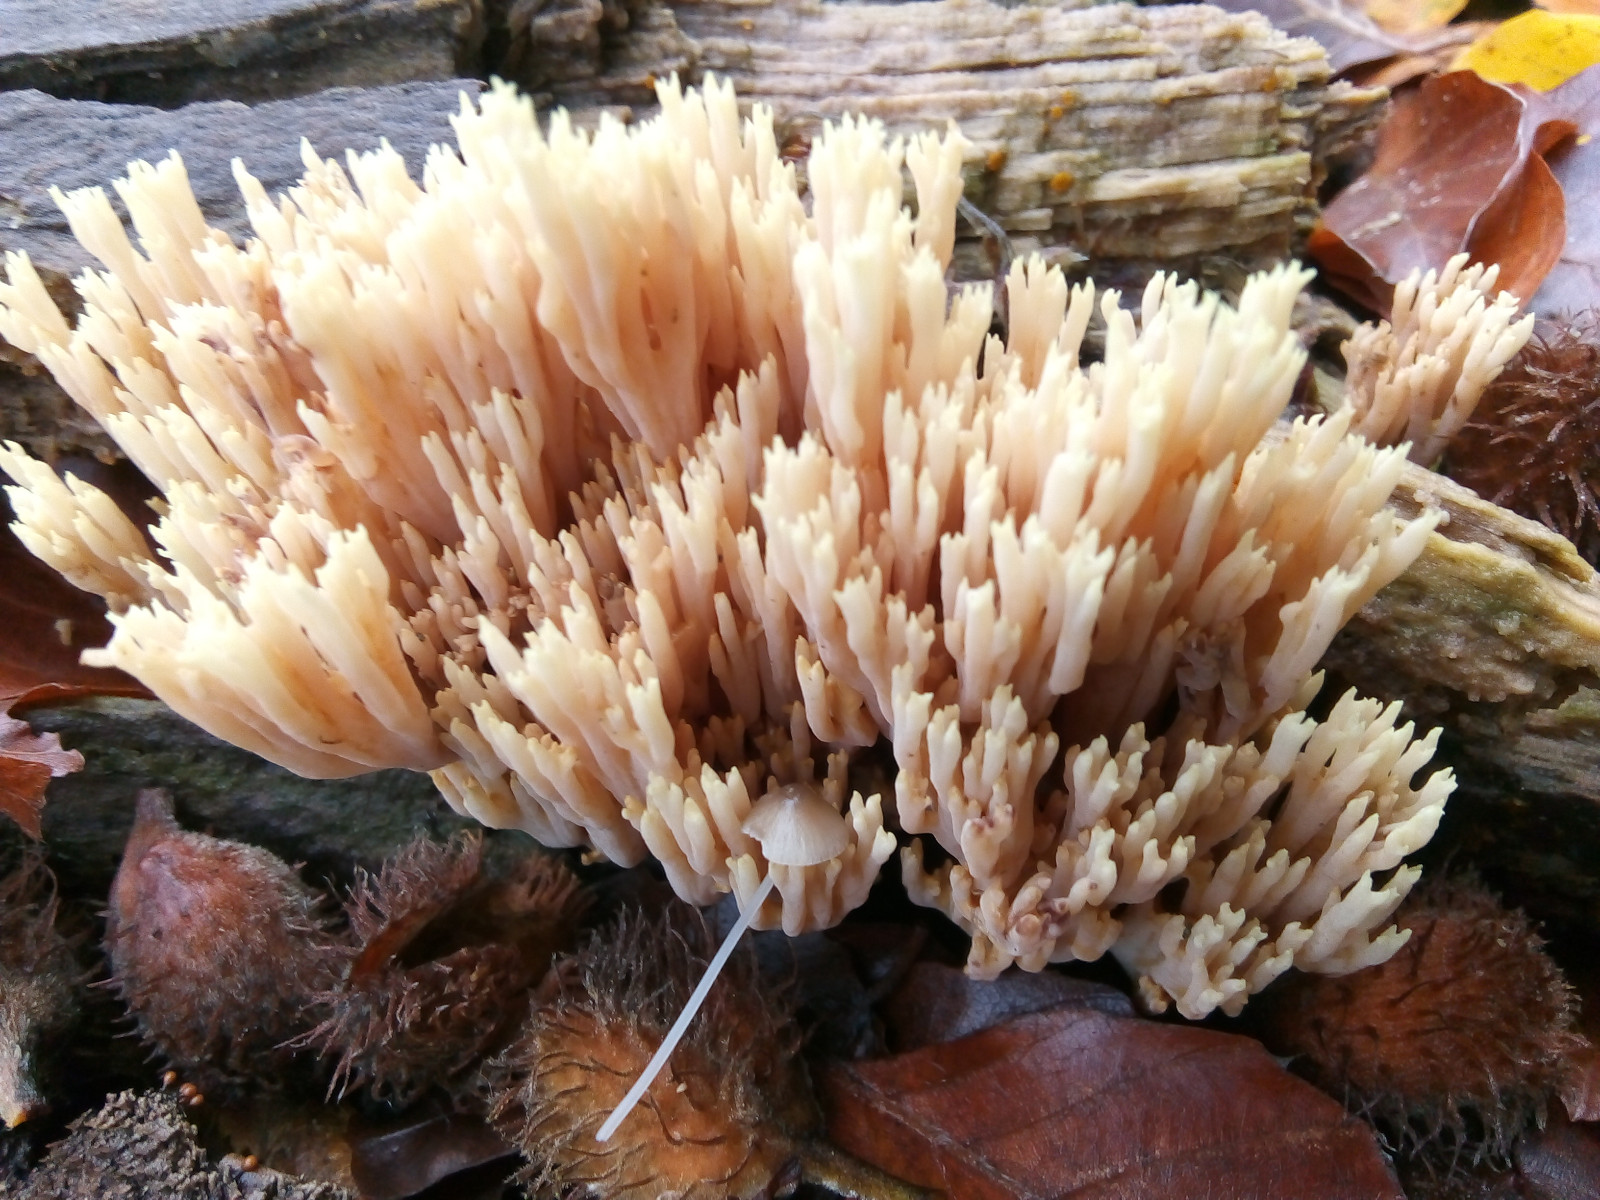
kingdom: Fungi
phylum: Basidiomycota
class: Agaricomycetes
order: Gomphales
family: Gomphaceae
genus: Ramaria
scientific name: Ramaria stricta
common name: rank koralsvamp
